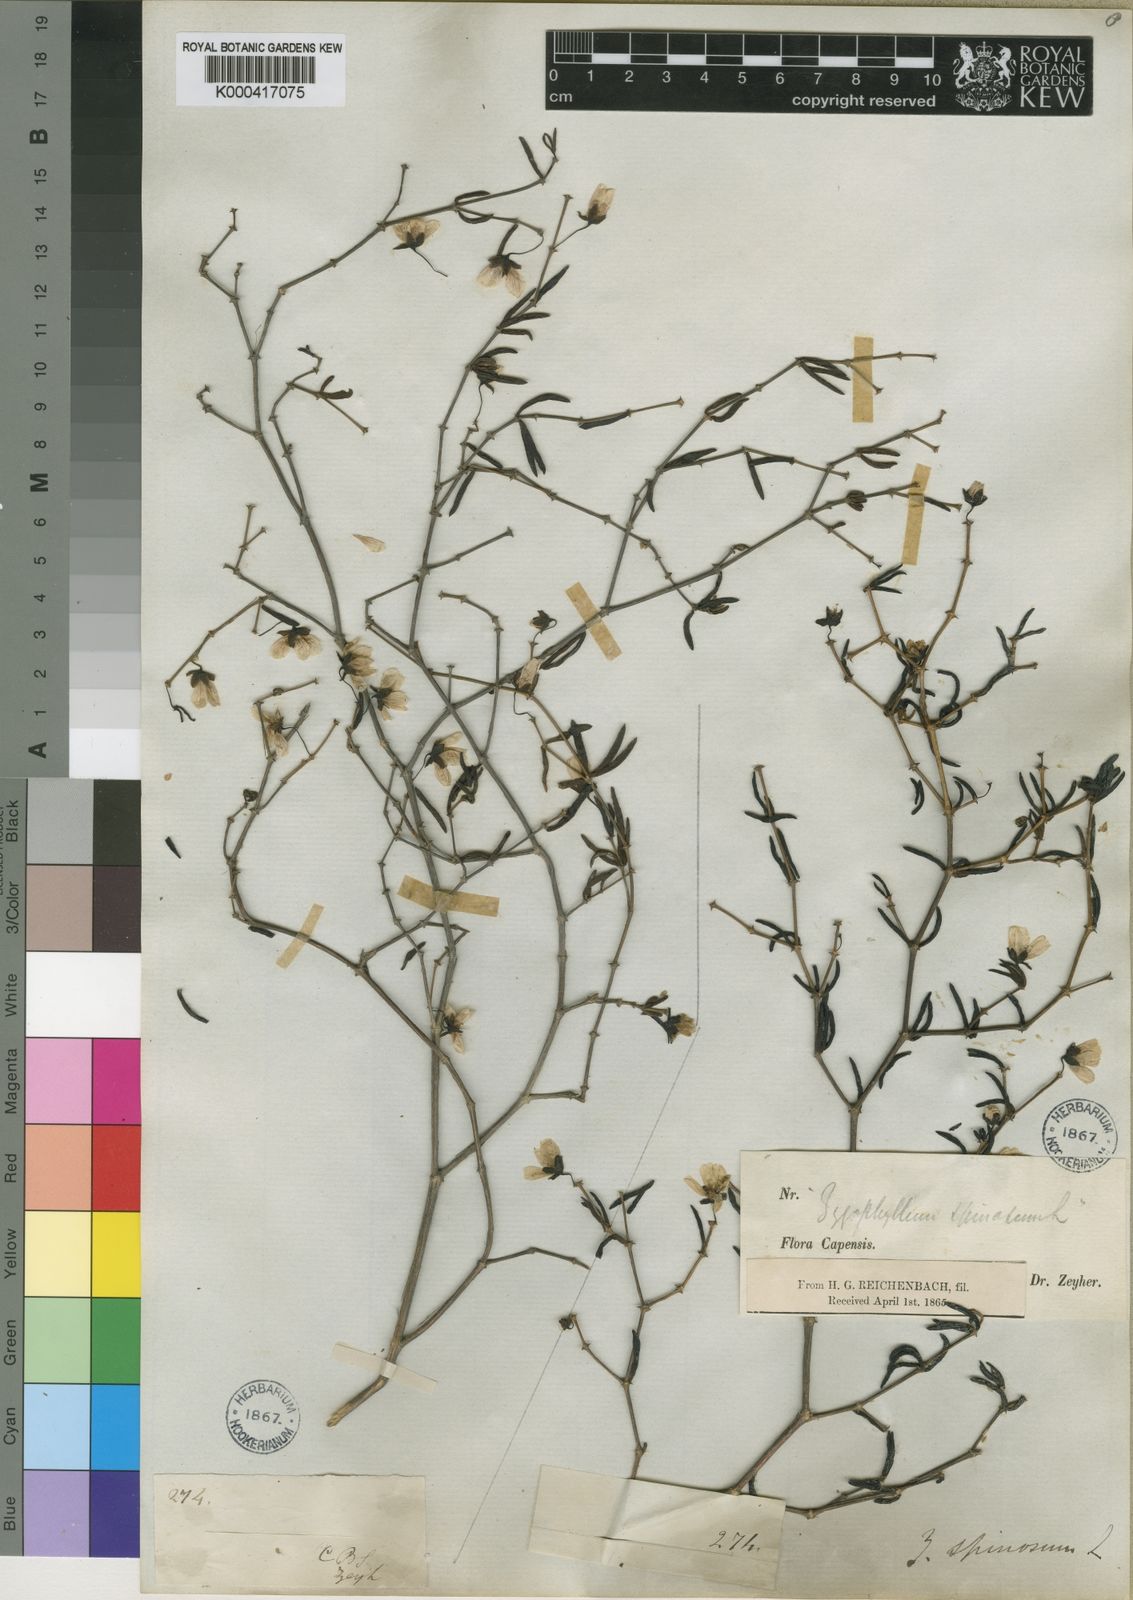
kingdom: Plantae
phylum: Tracheophyta
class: Magnoliopsida
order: Zygophyllales
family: Zygophyllaceae
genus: Roepera
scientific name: Roepera spinosa
